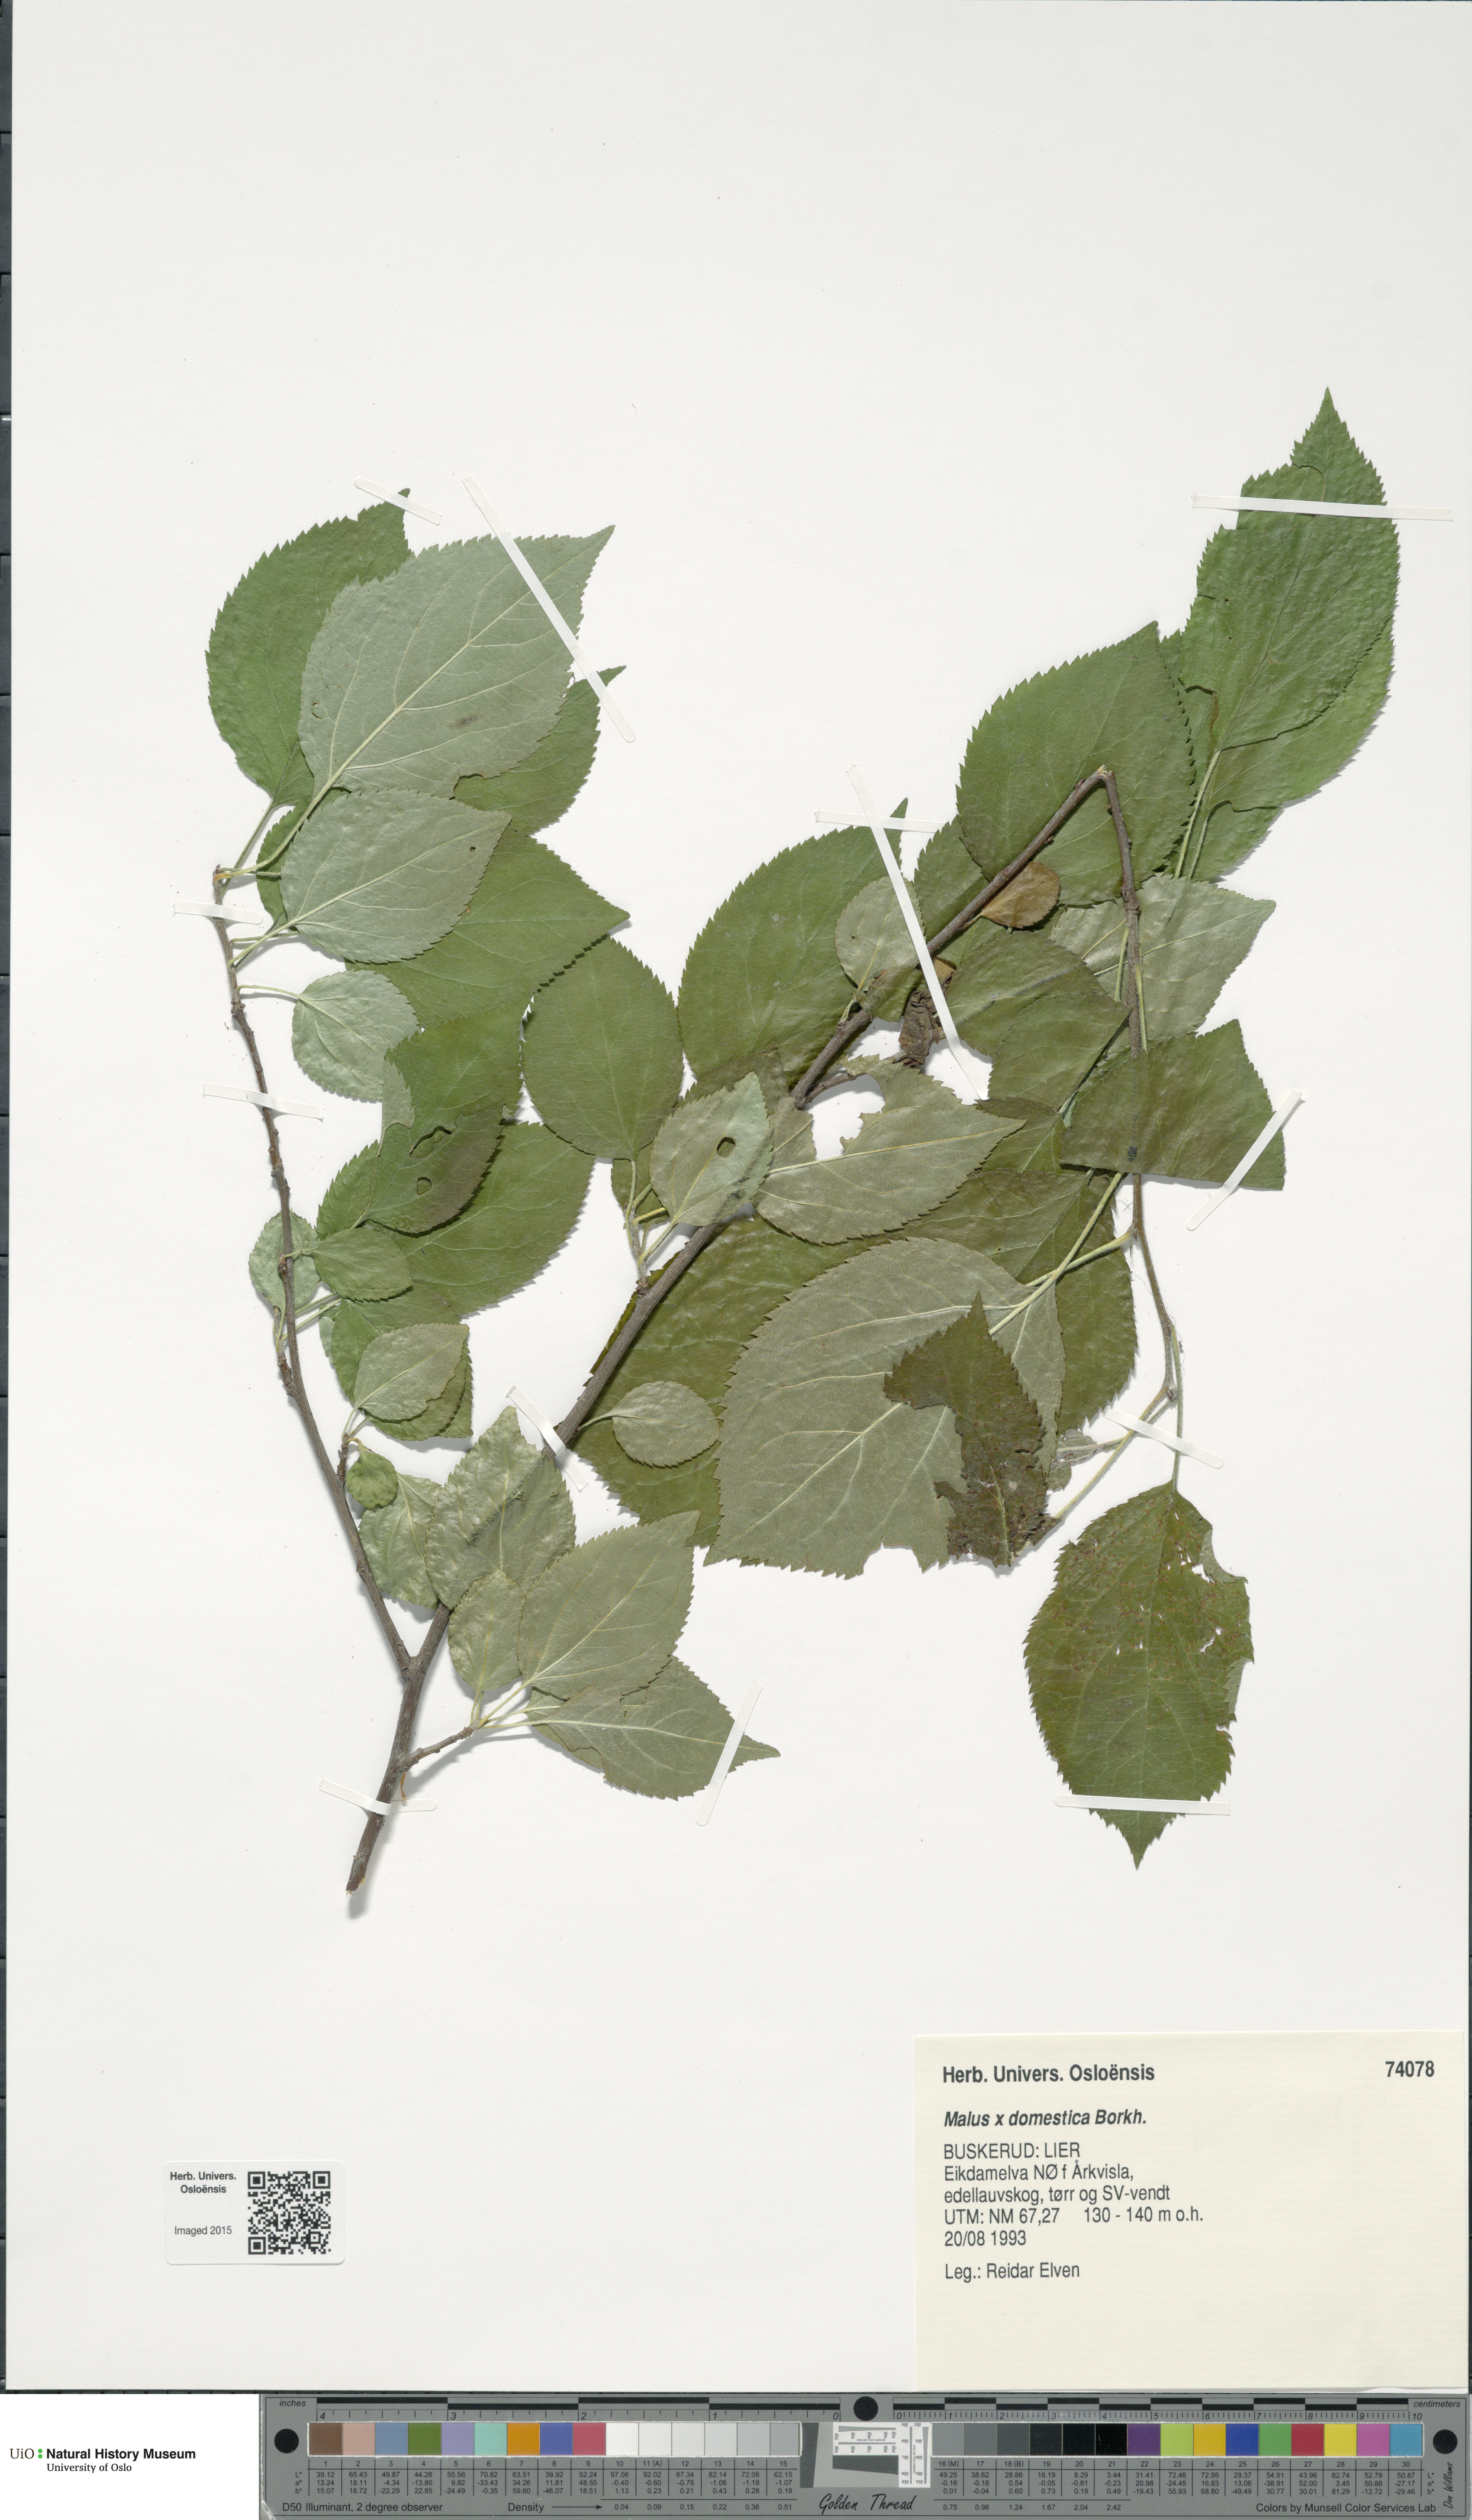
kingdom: Plantae
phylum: Tracheophyta
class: Magnoliopsida
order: Rosales
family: Rosaceae
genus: Malus
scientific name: Malus domestica
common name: Apple
